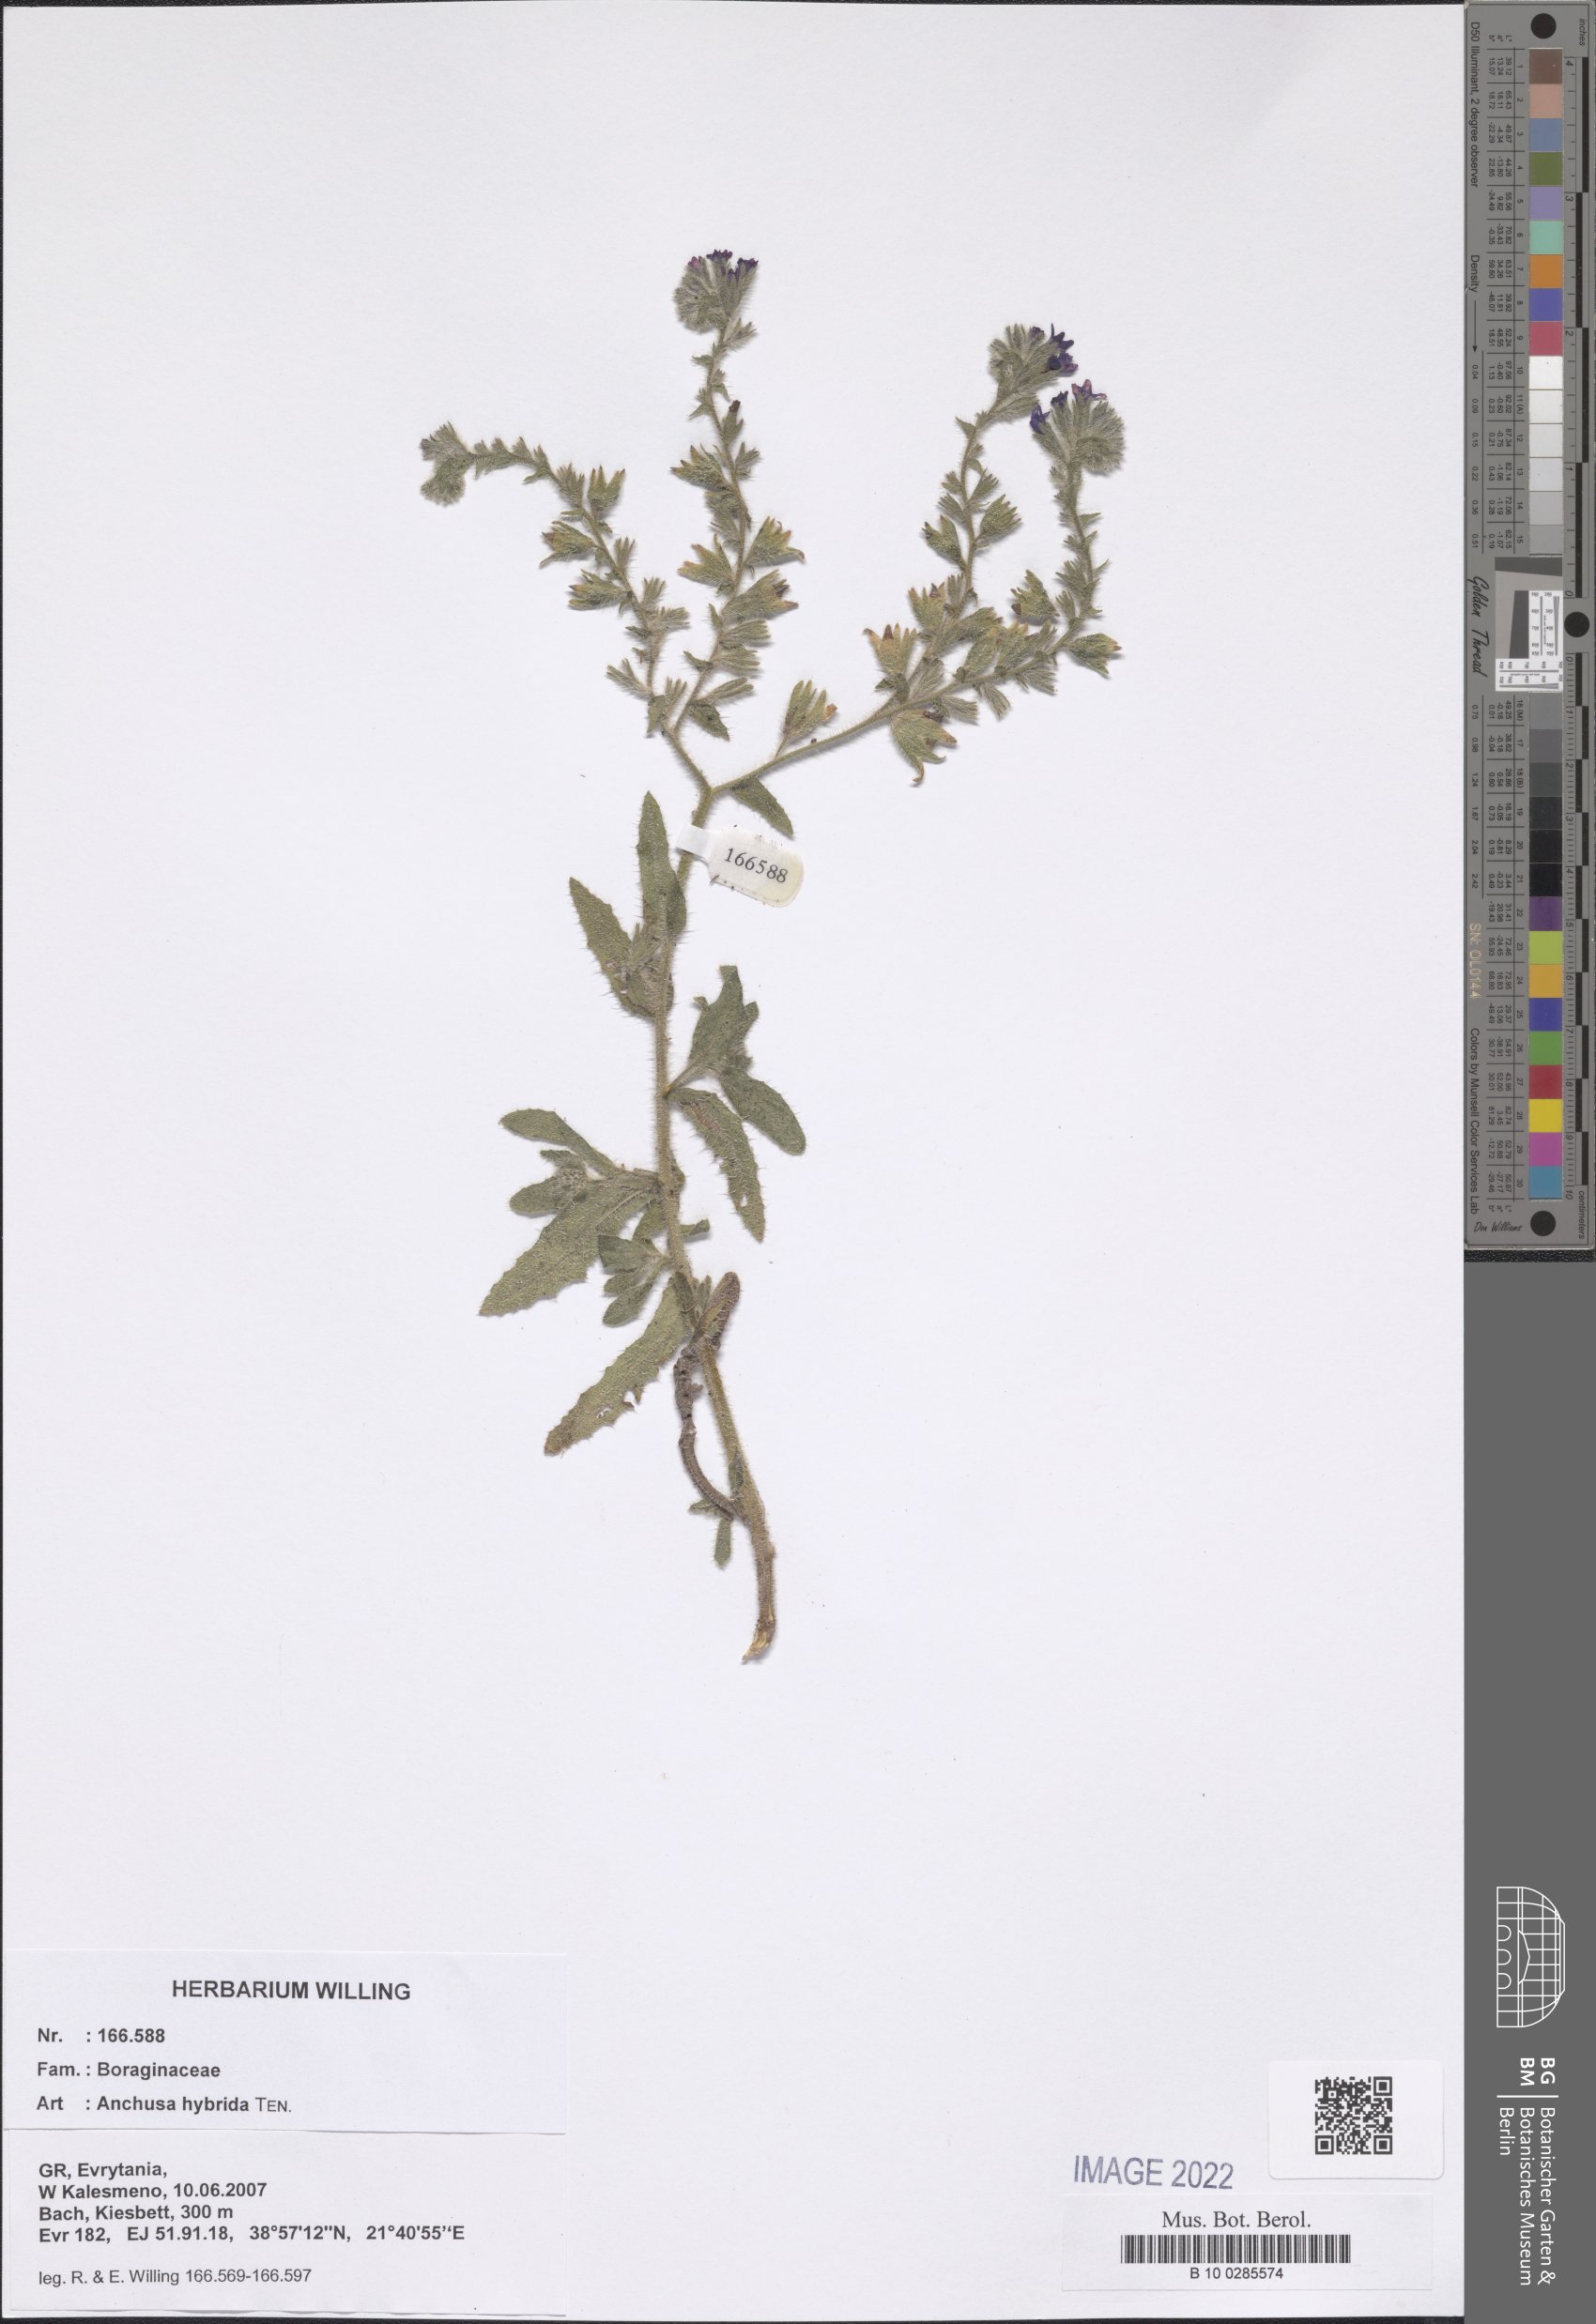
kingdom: Plantae
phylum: Tracheophyta
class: Magnoliopsida
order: Boraginales
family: Boraginaceae
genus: Anchusa
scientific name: Anchusa hybrida
